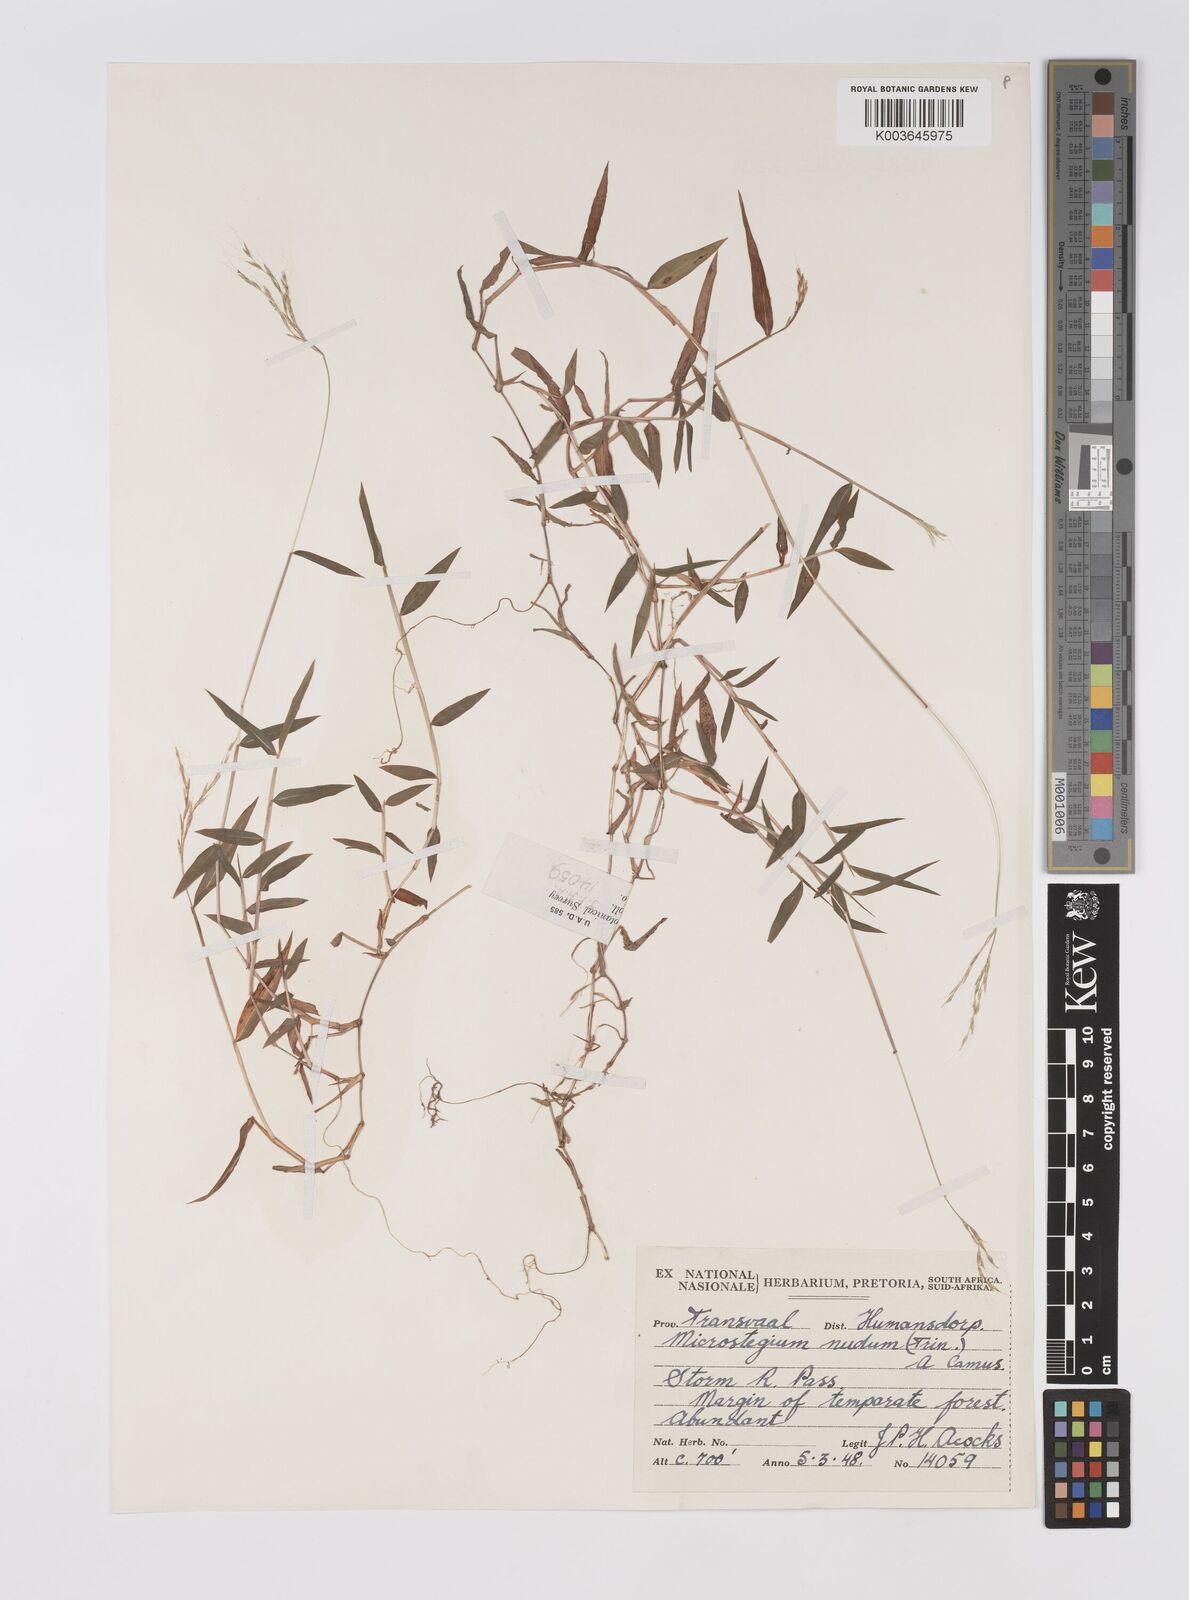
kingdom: Plantae
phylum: Tracheophyta
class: Liliopsida
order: Poales
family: Poaceae
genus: Microstegium
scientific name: Microstegium nudum
